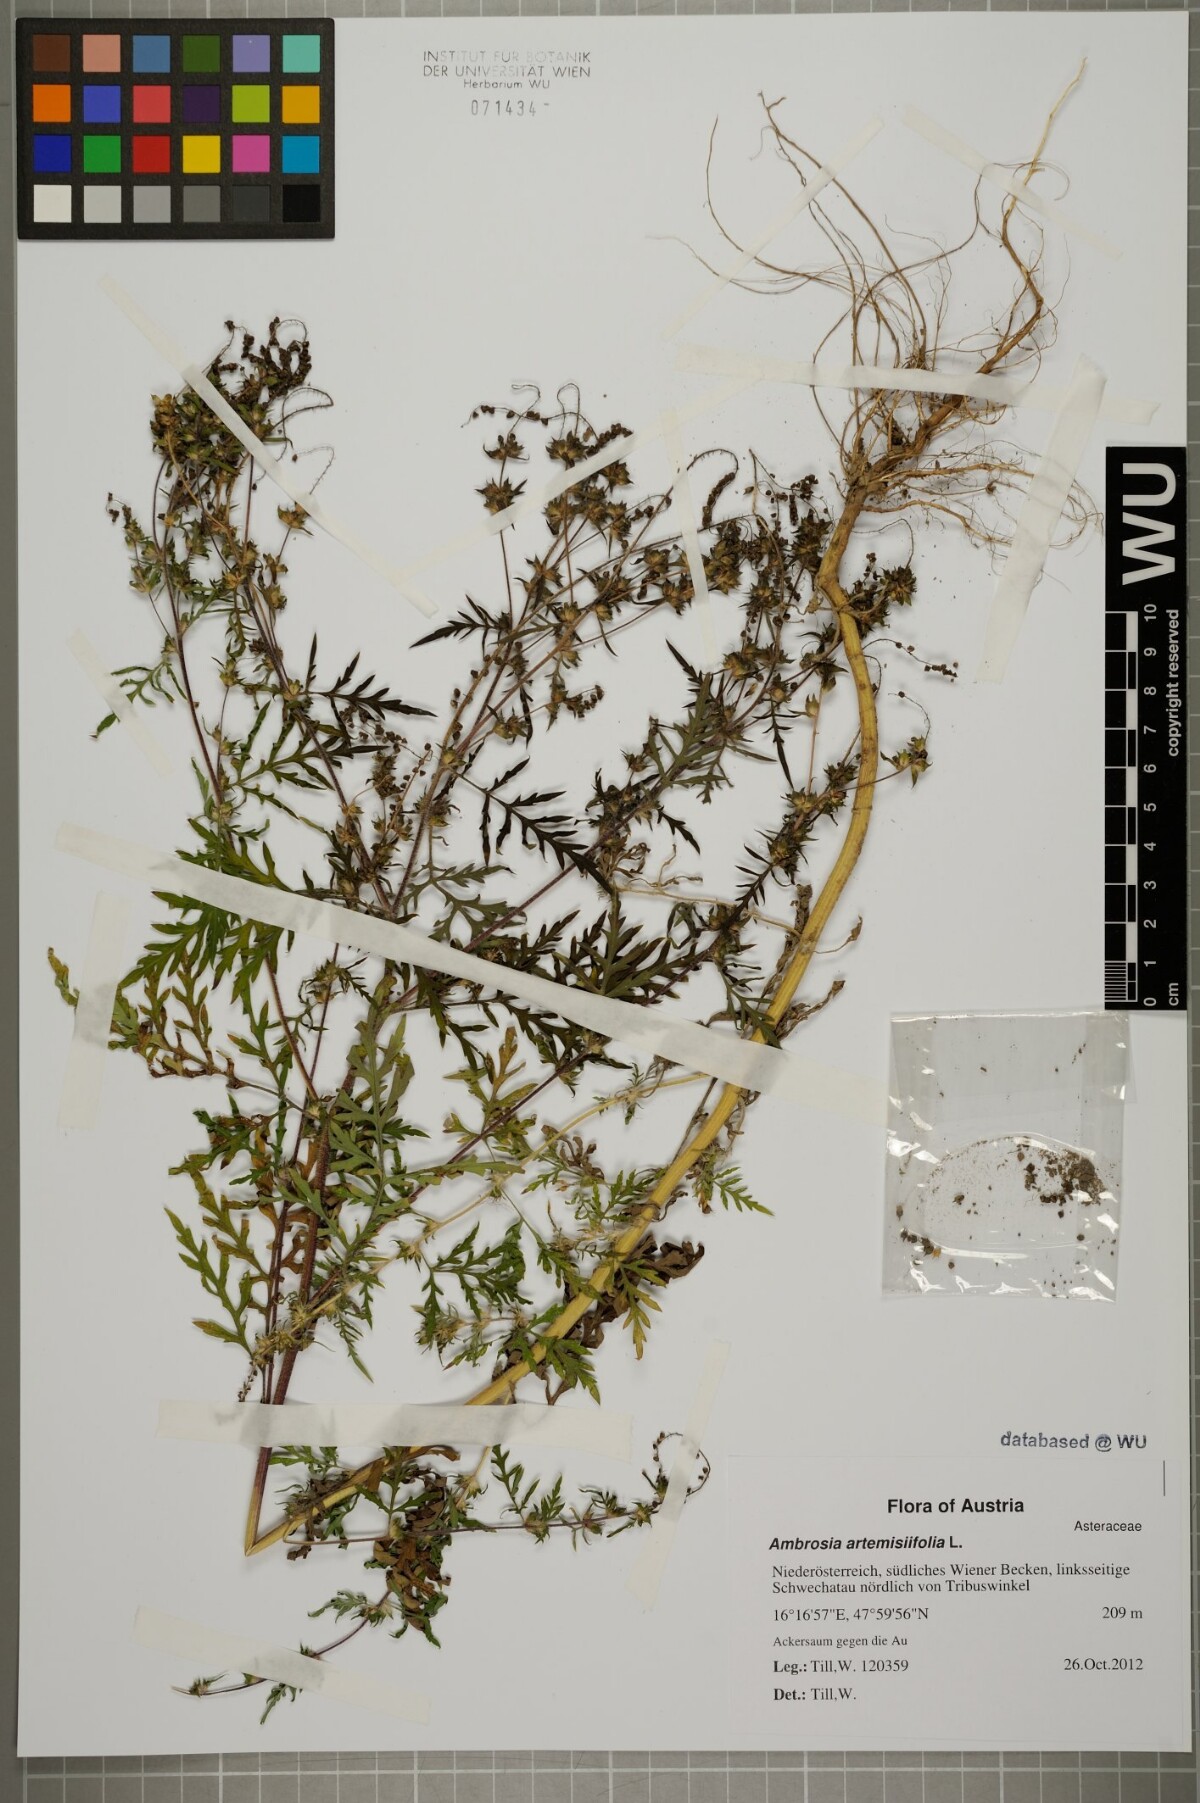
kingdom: Plantae
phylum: Tracheophyta
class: Magnoliopsida
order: Asterales
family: Asteraceae
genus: Ambrosia
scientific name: Ambrosia artemisiifolia
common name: Annual ragweed
